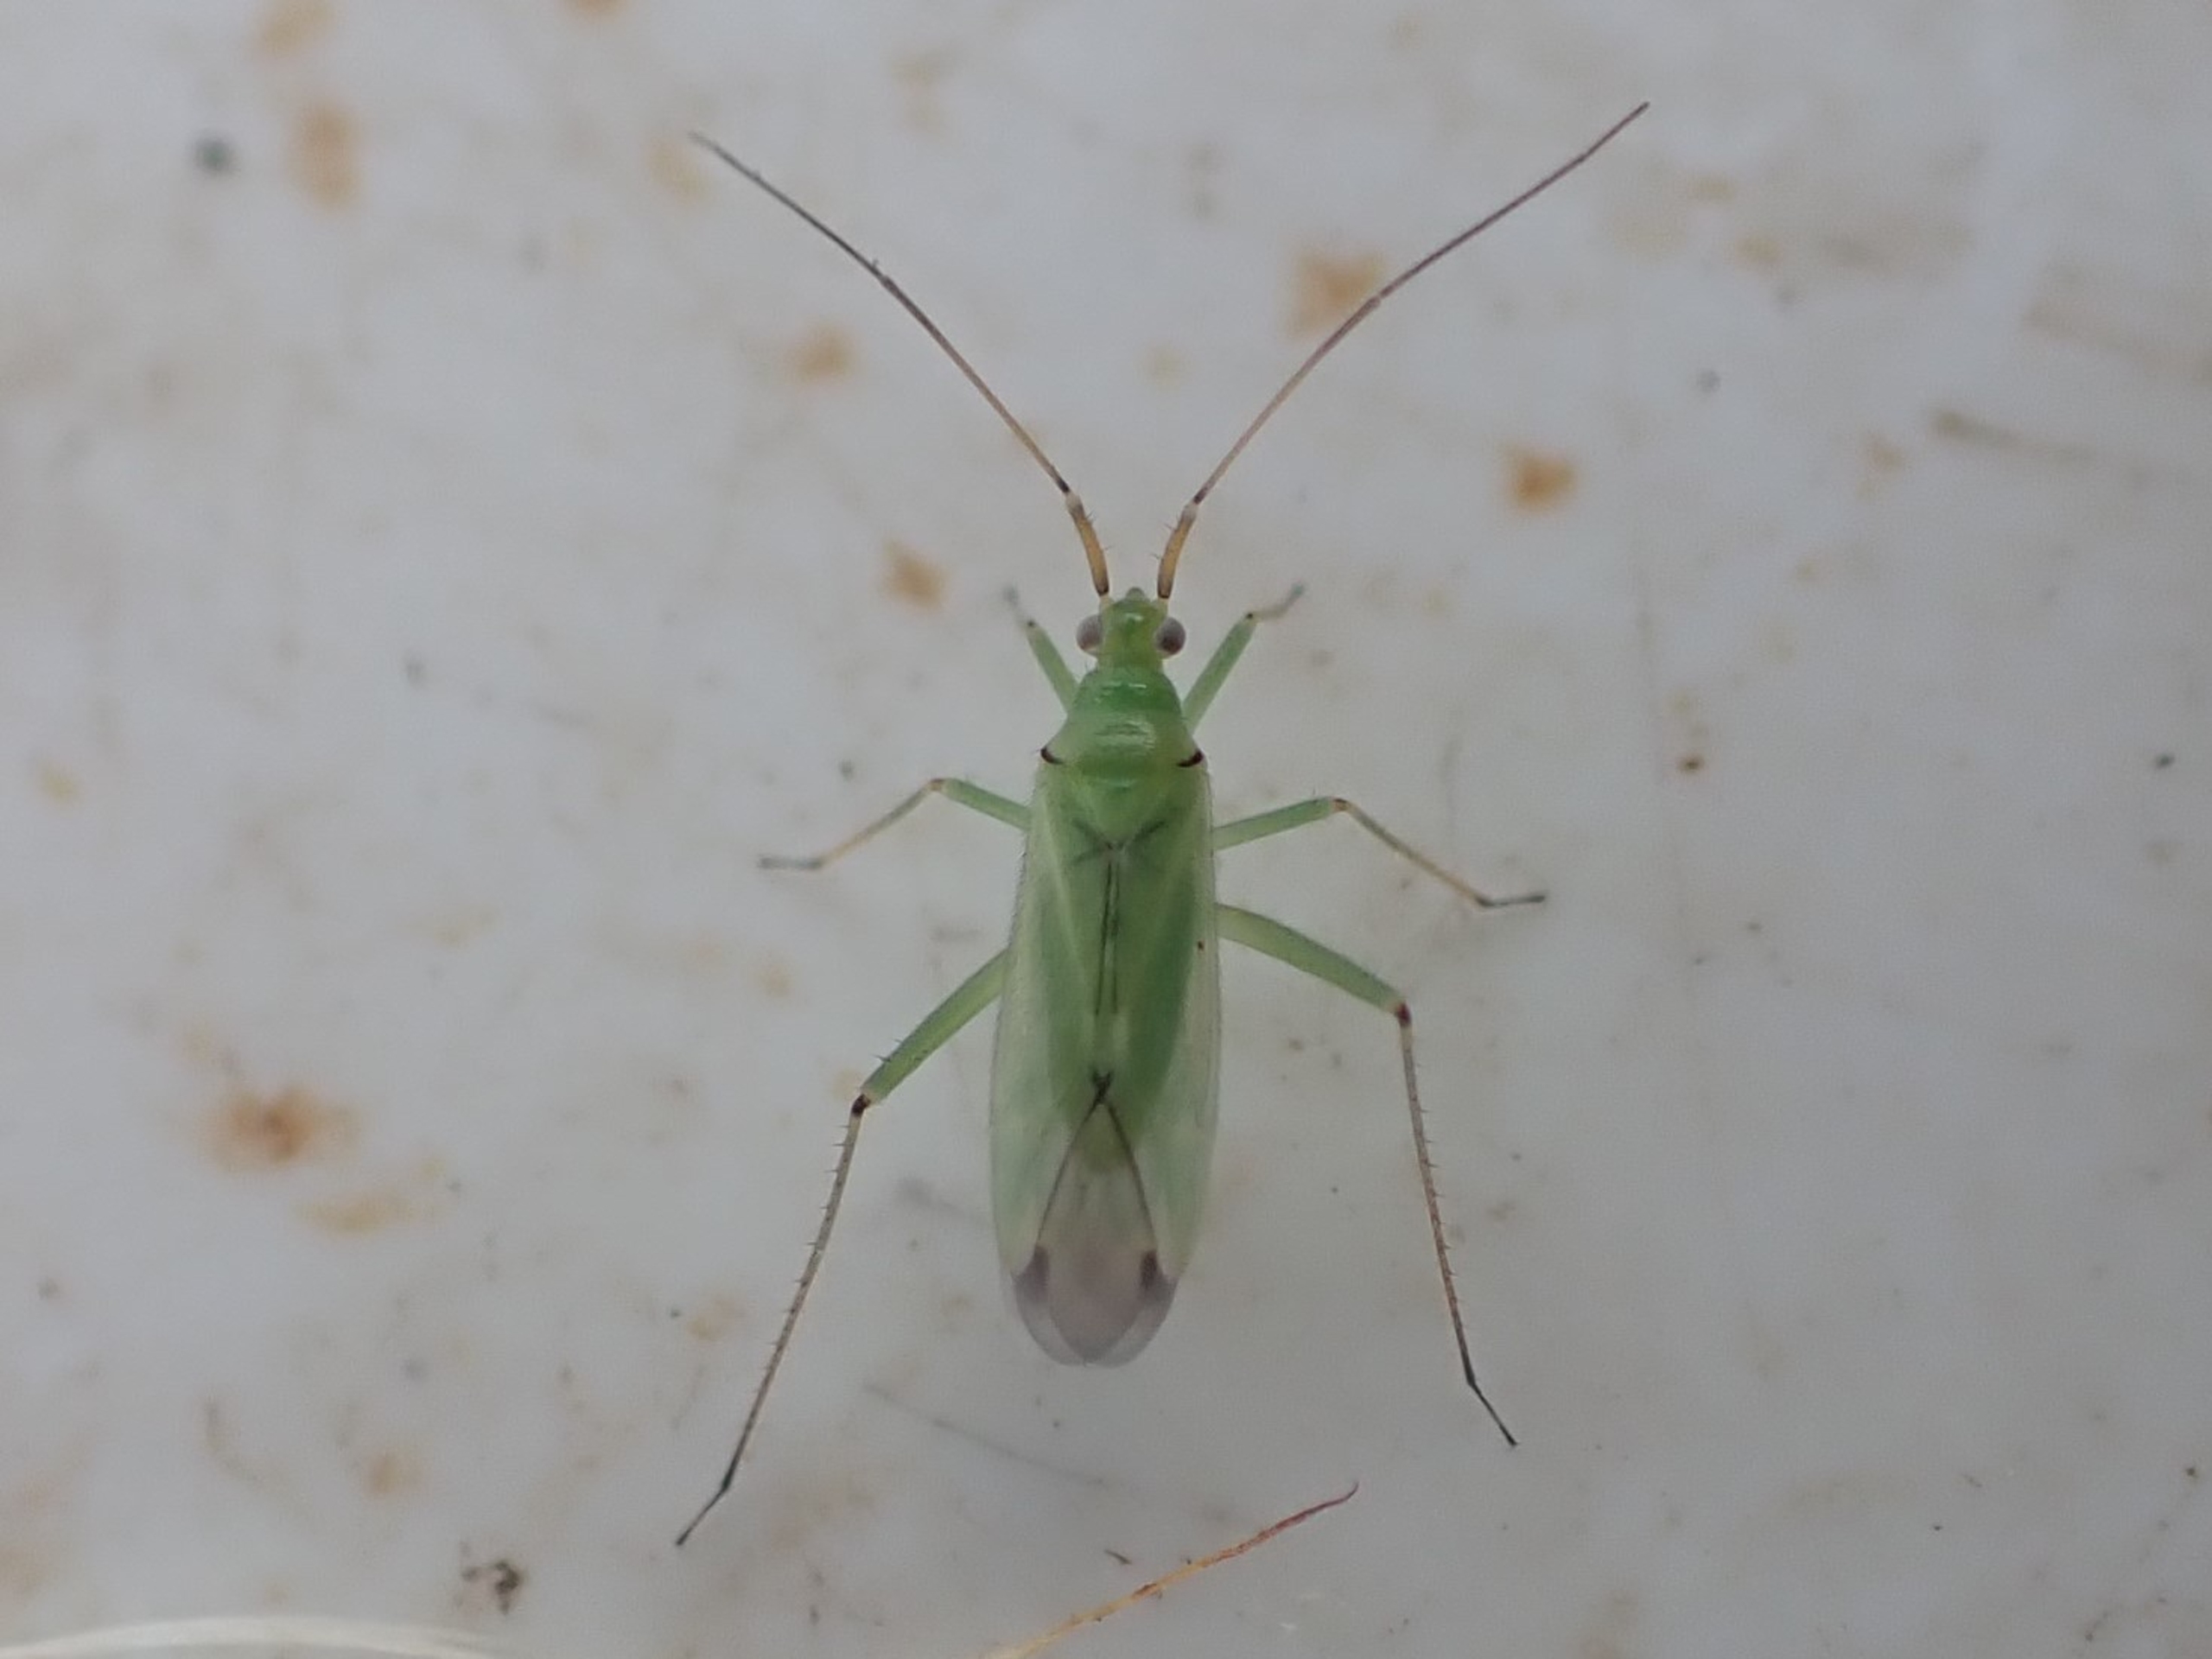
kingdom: Animalia
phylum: Arthropoda
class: Insecta
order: Hemiptera
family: Miridae
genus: Blepharidopterus
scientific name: Blepharidopterus angulatus
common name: Sortknæet blomstertæge
